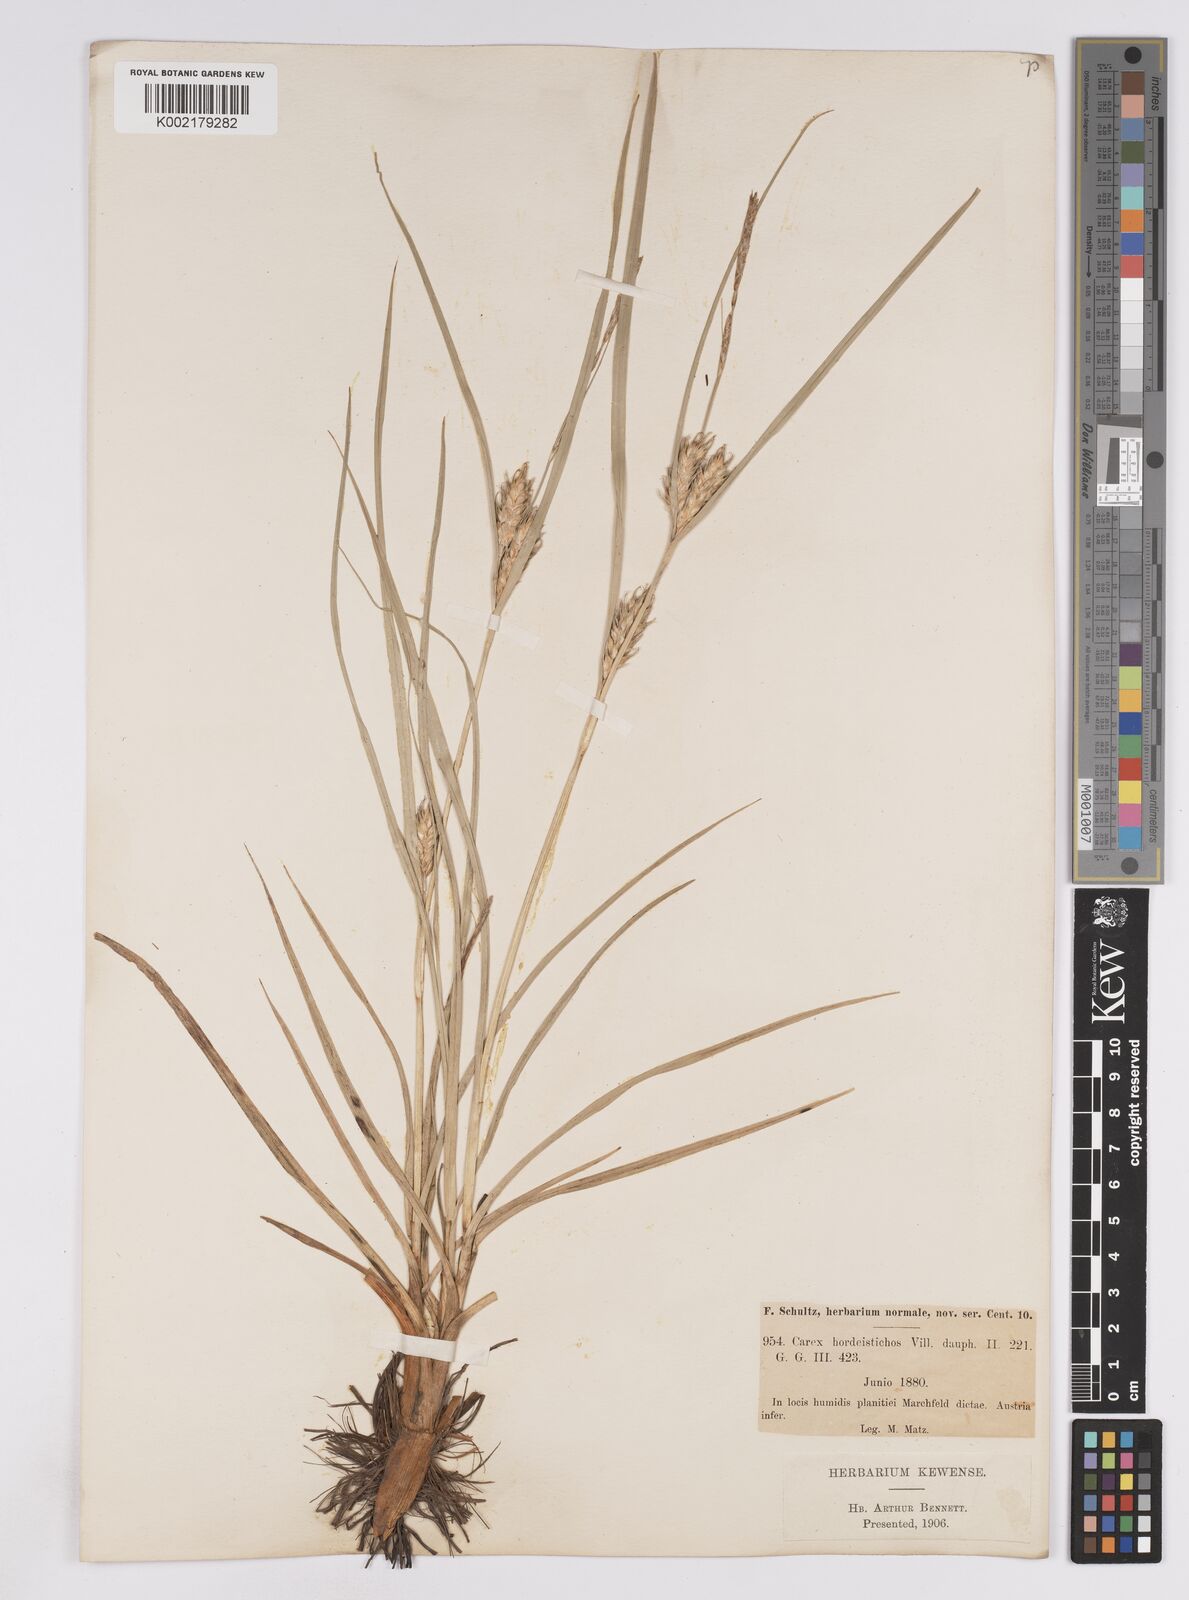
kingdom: Plantae
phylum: Tracheophyta
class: Liliopsida
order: Poales
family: Cyperaceae
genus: Carex
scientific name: Carex hordeistichos
